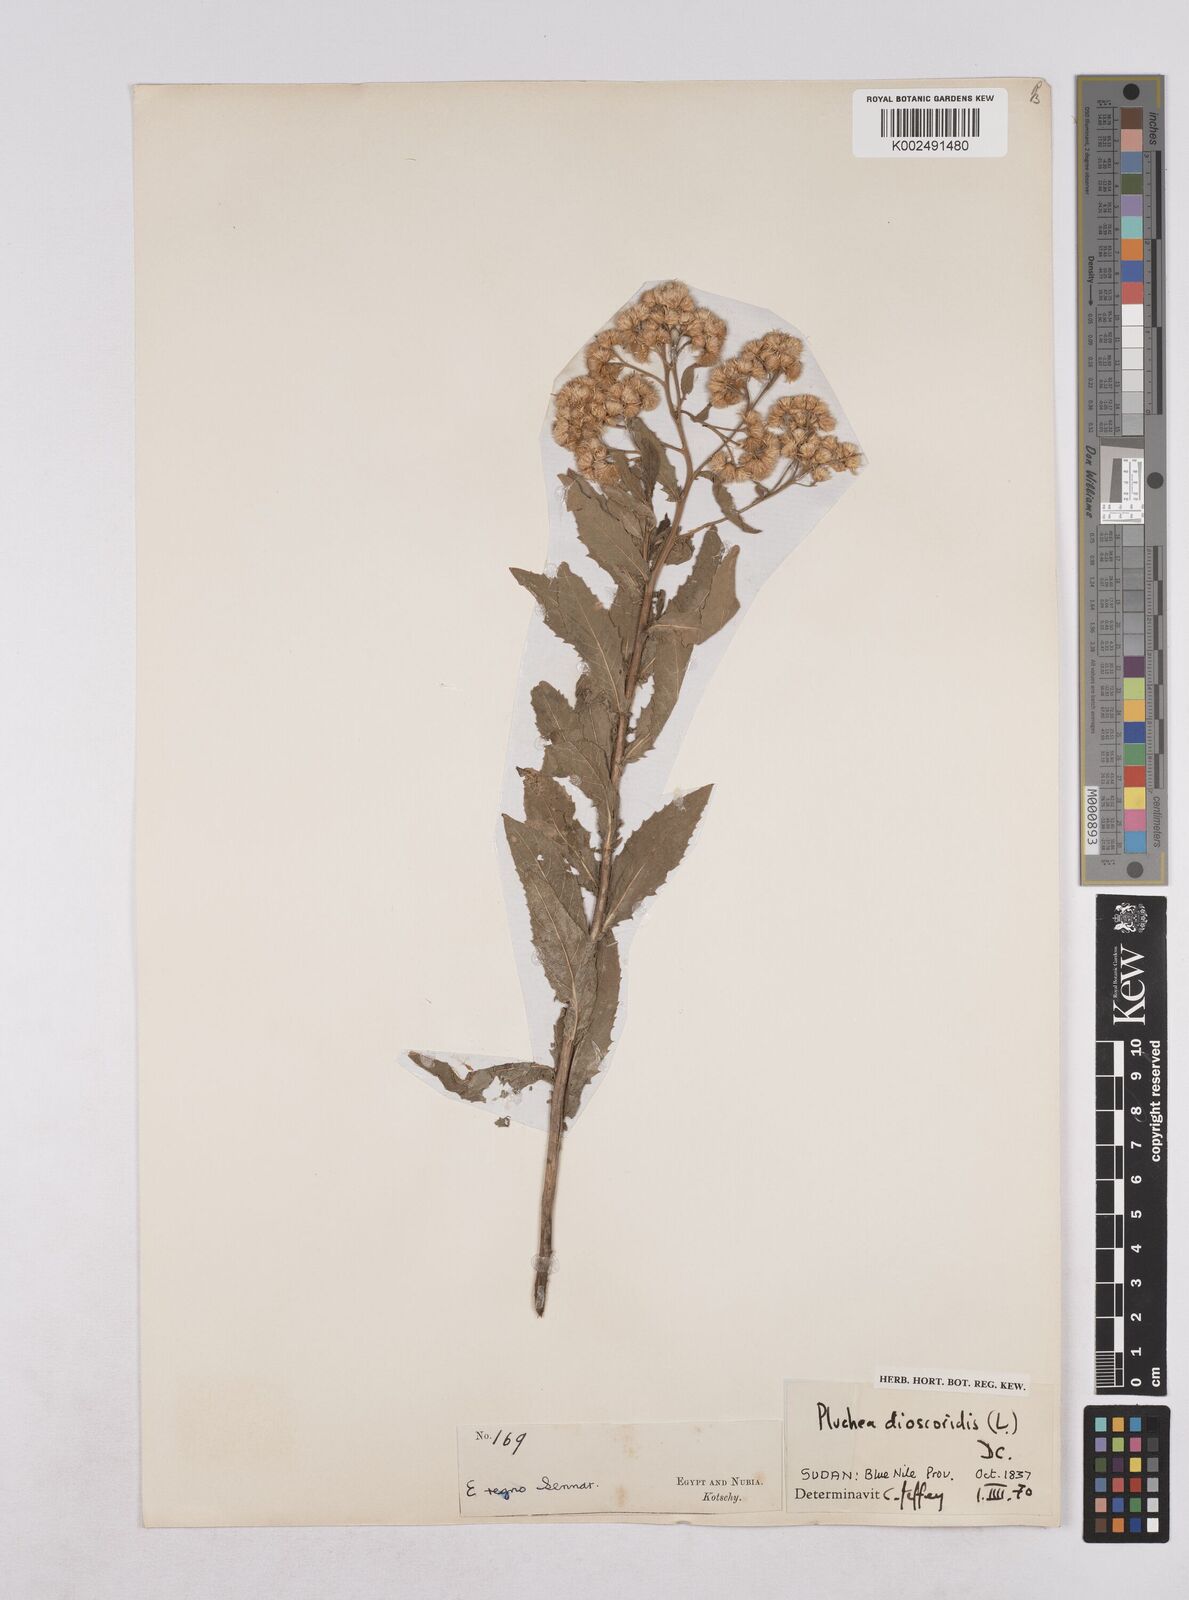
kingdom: Plantae
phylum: Tracheophyta
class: Magnoliopsida
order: Asterales
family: Asteraceae
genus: Pluchea
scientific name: Pluchea dioscoridis
